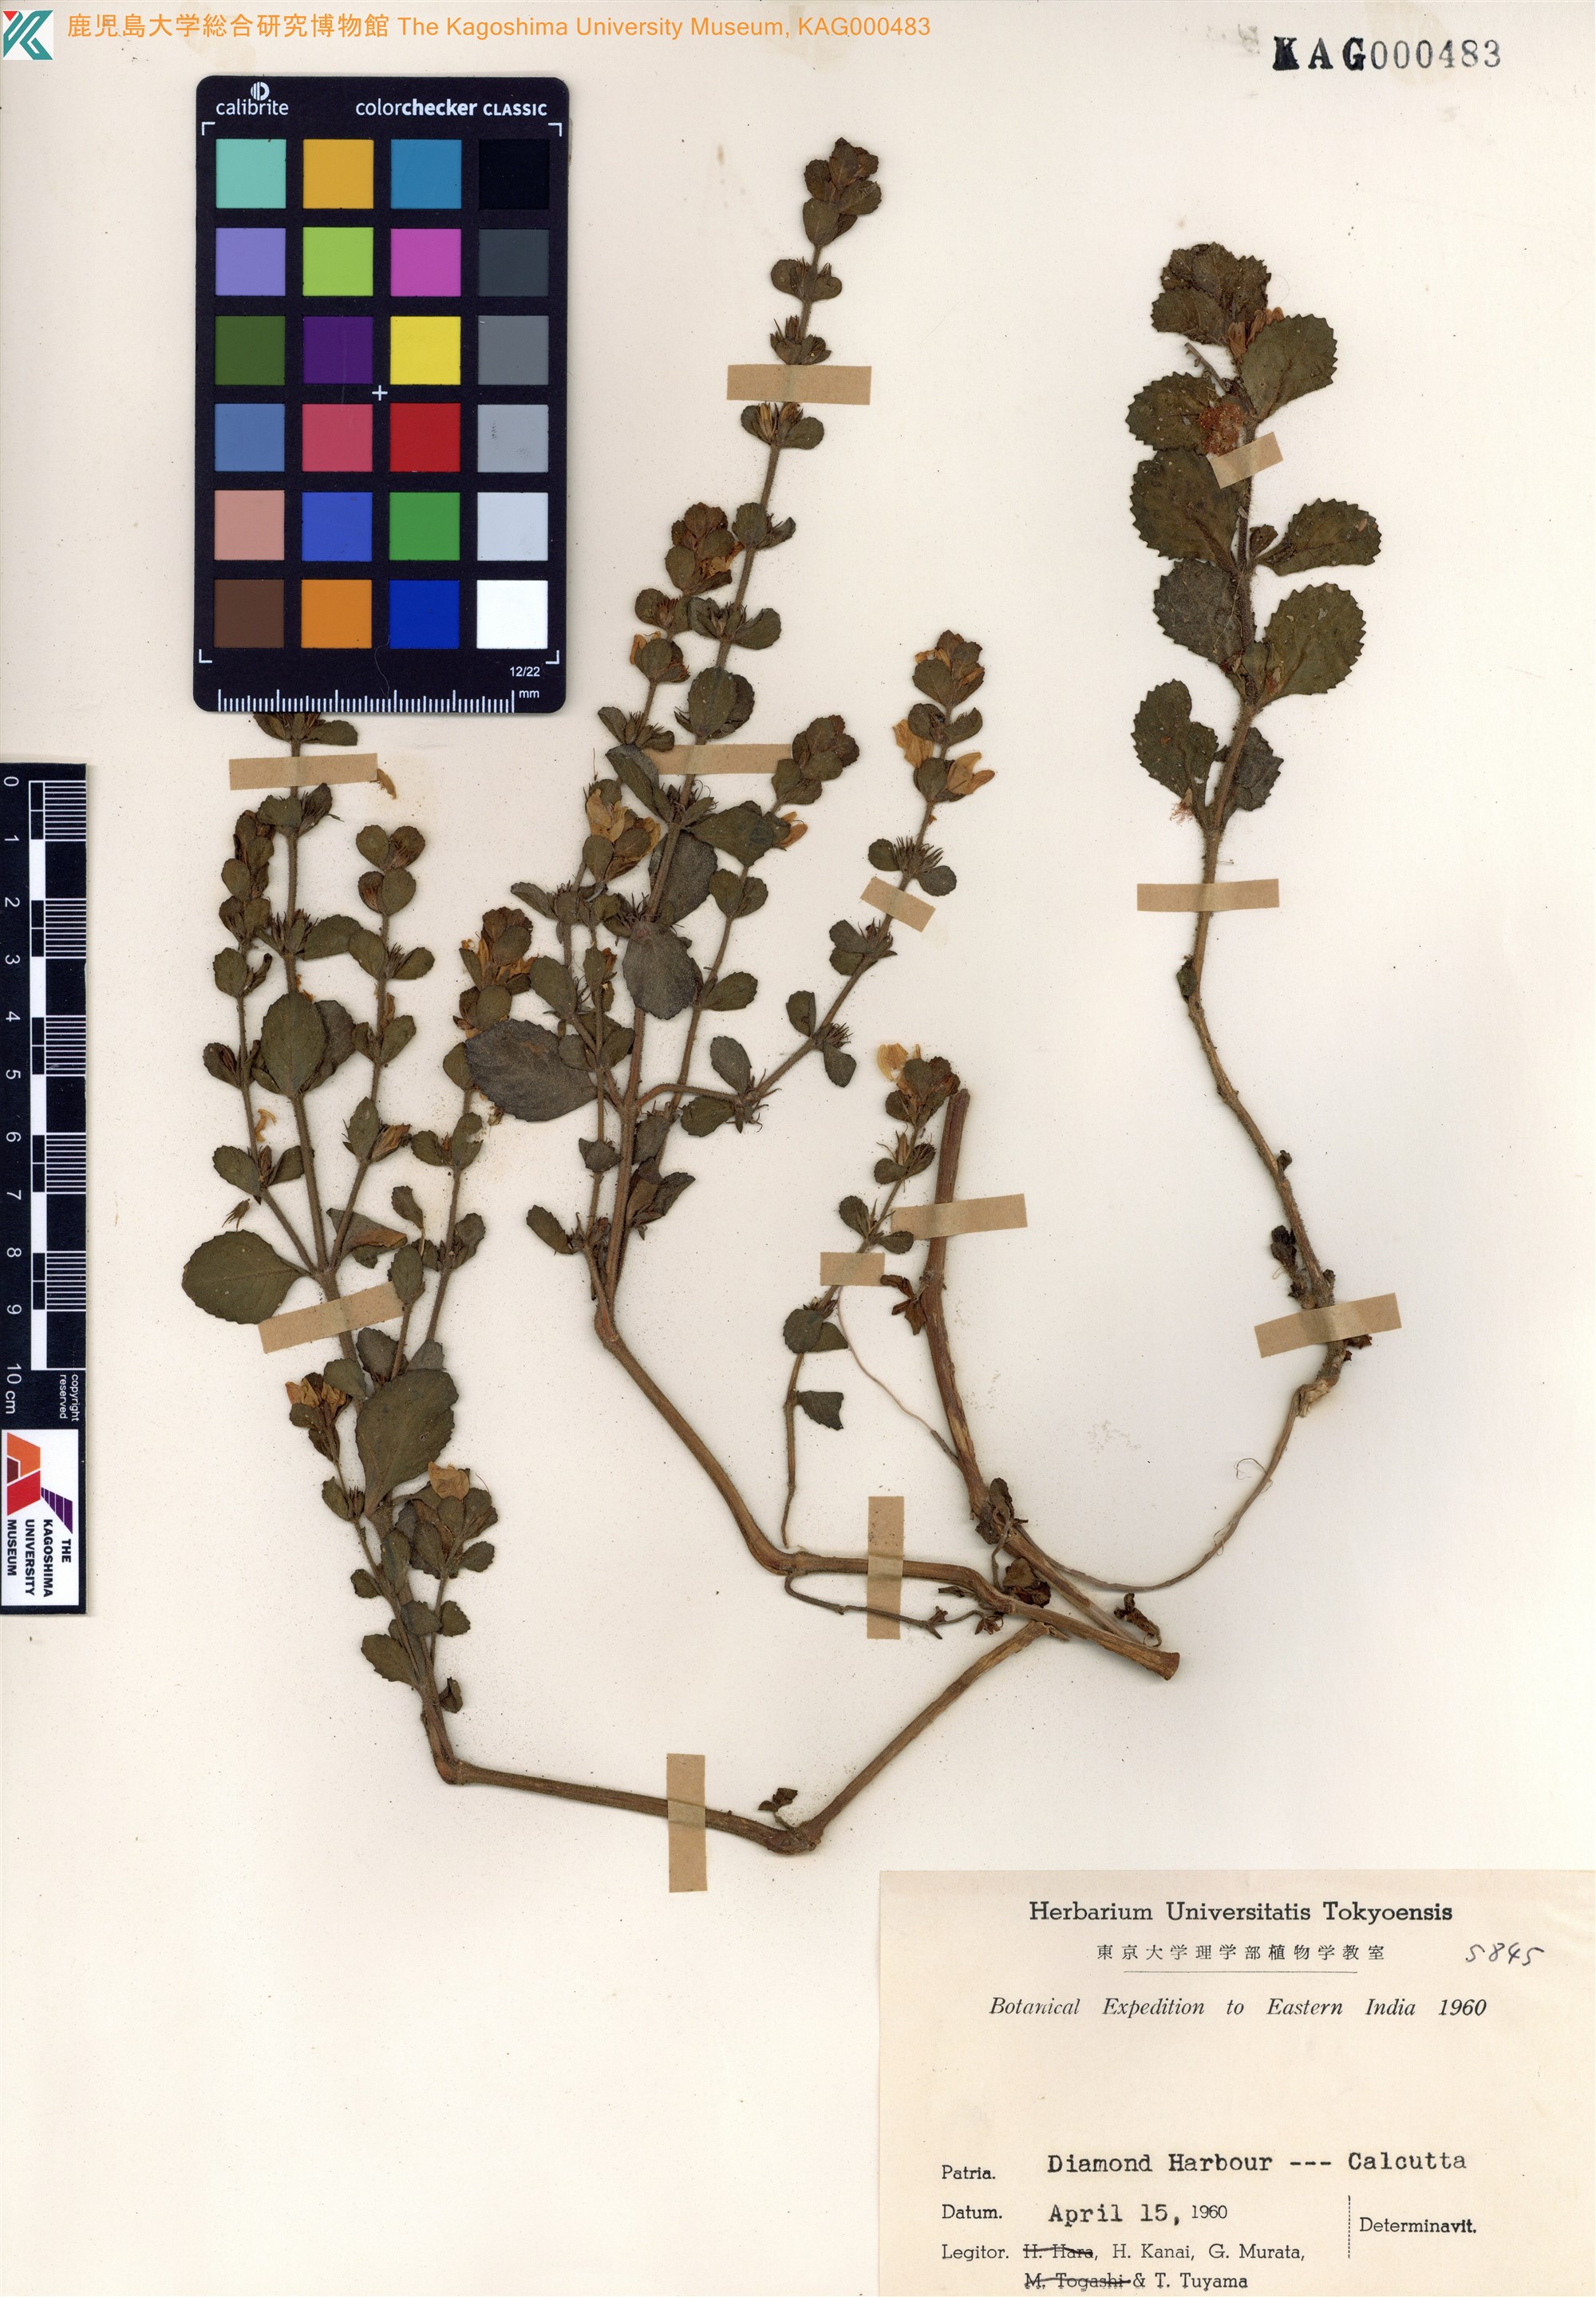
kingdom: Plantae
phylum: Tracheophyta
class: Magnoliopsida
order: Lamiales
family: Acanthaceae
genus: Strobilanthes
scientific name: Strobilanthes
